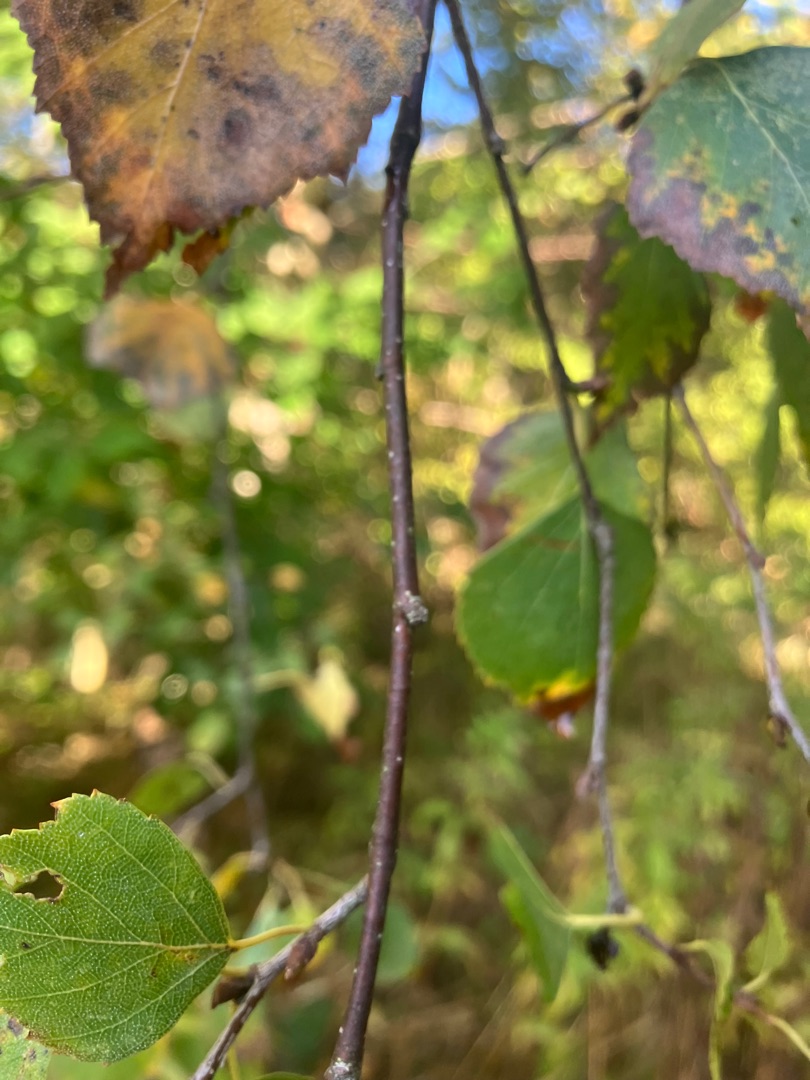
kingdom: Plantae
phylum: Tracheophyta
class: Magnoliopsida
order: Fagales
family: Betulaceae
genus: Betula
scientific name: Betula pendula
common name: Vorte-birk
